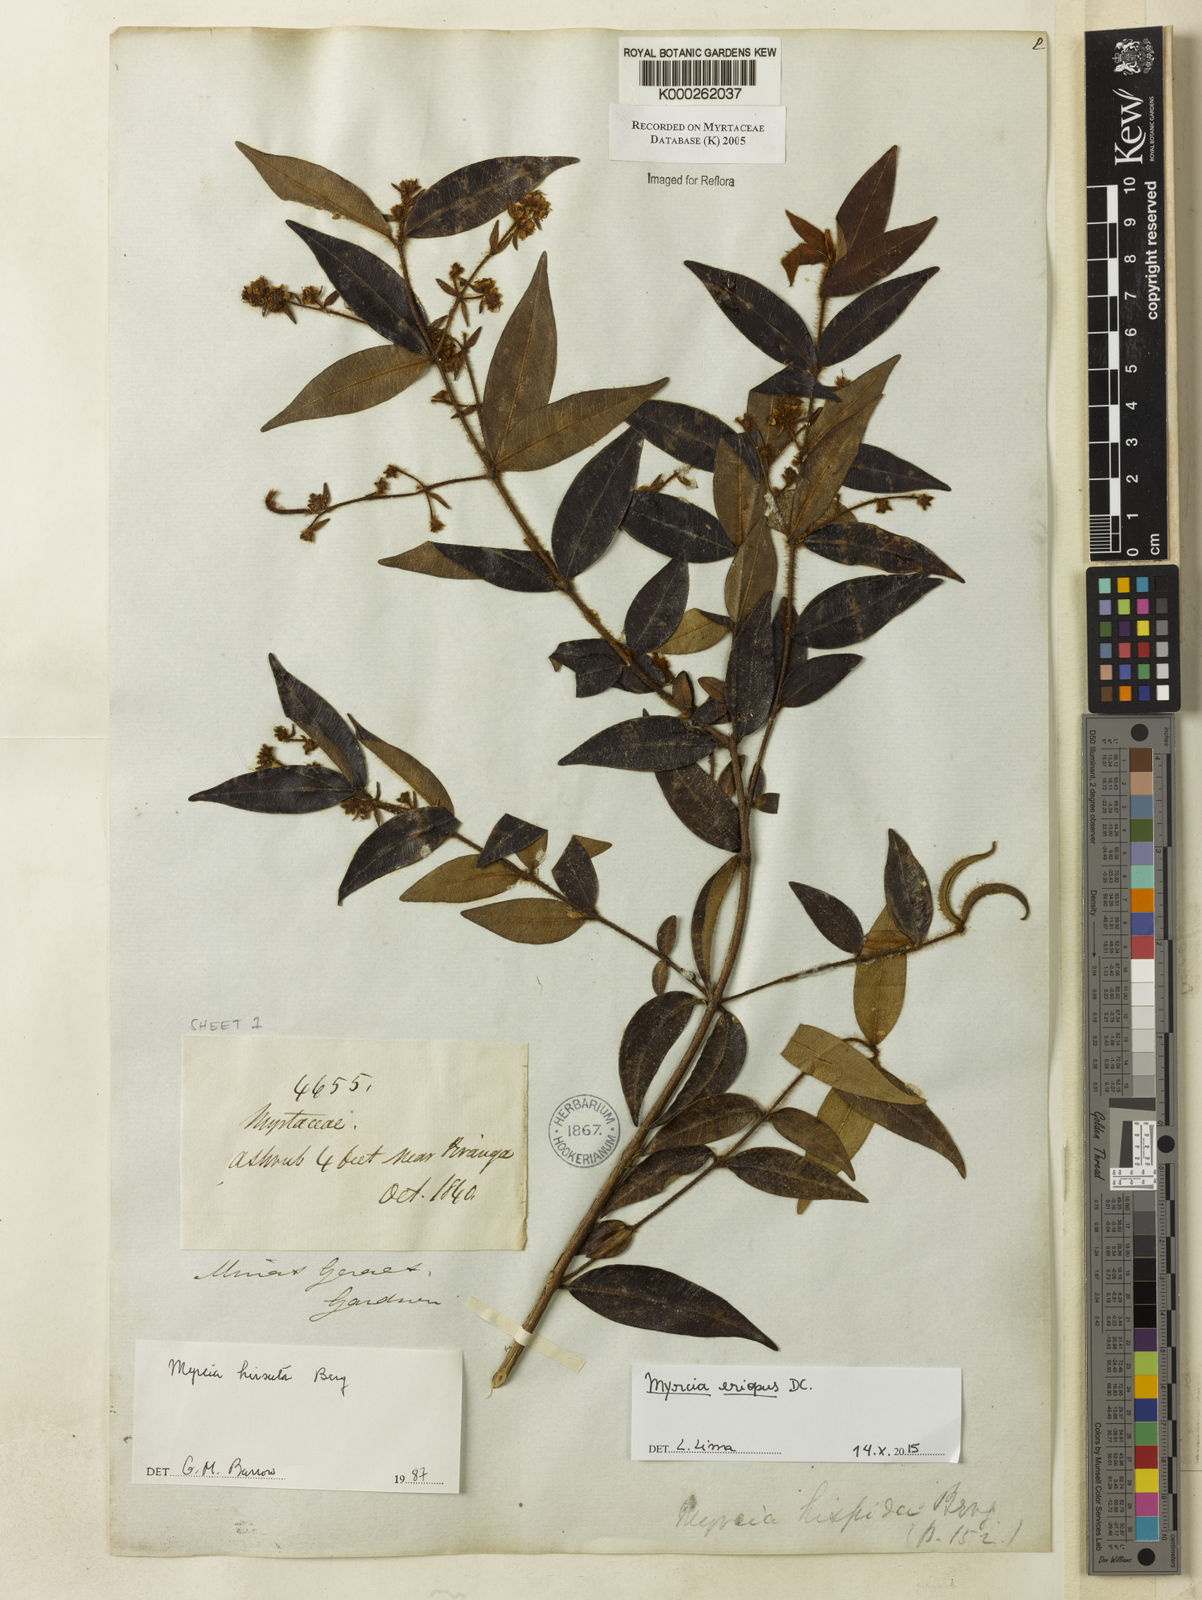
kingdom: Plantae
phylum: Tracheophyta
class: Magnoliopsida
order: Myrtales
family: Myrtaceae
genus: Myrcia
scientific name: Myrcia eriopus
